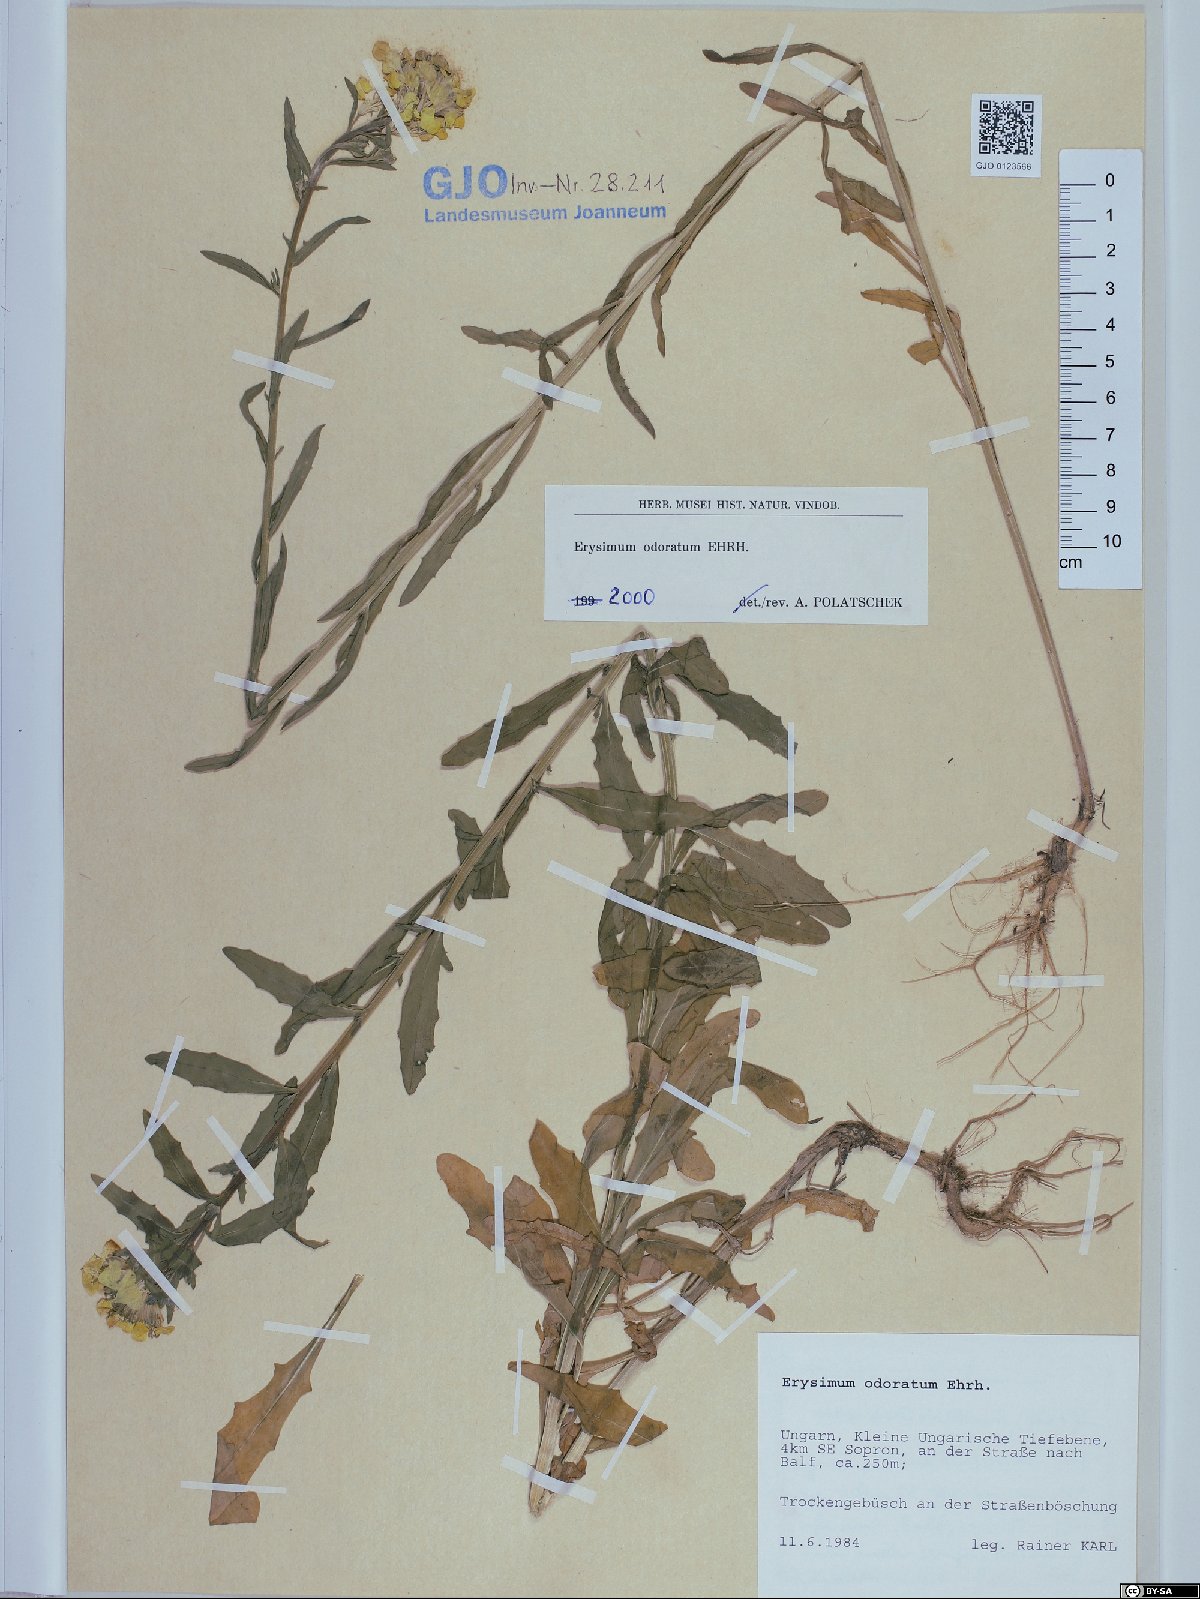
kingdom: Plantae
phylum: Tracheophyta
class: Magnoliopsida
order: Brassicales
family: Brassicaceae
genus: Erysimum
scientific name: Erysimum odoratum
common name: Smelly wallflower
